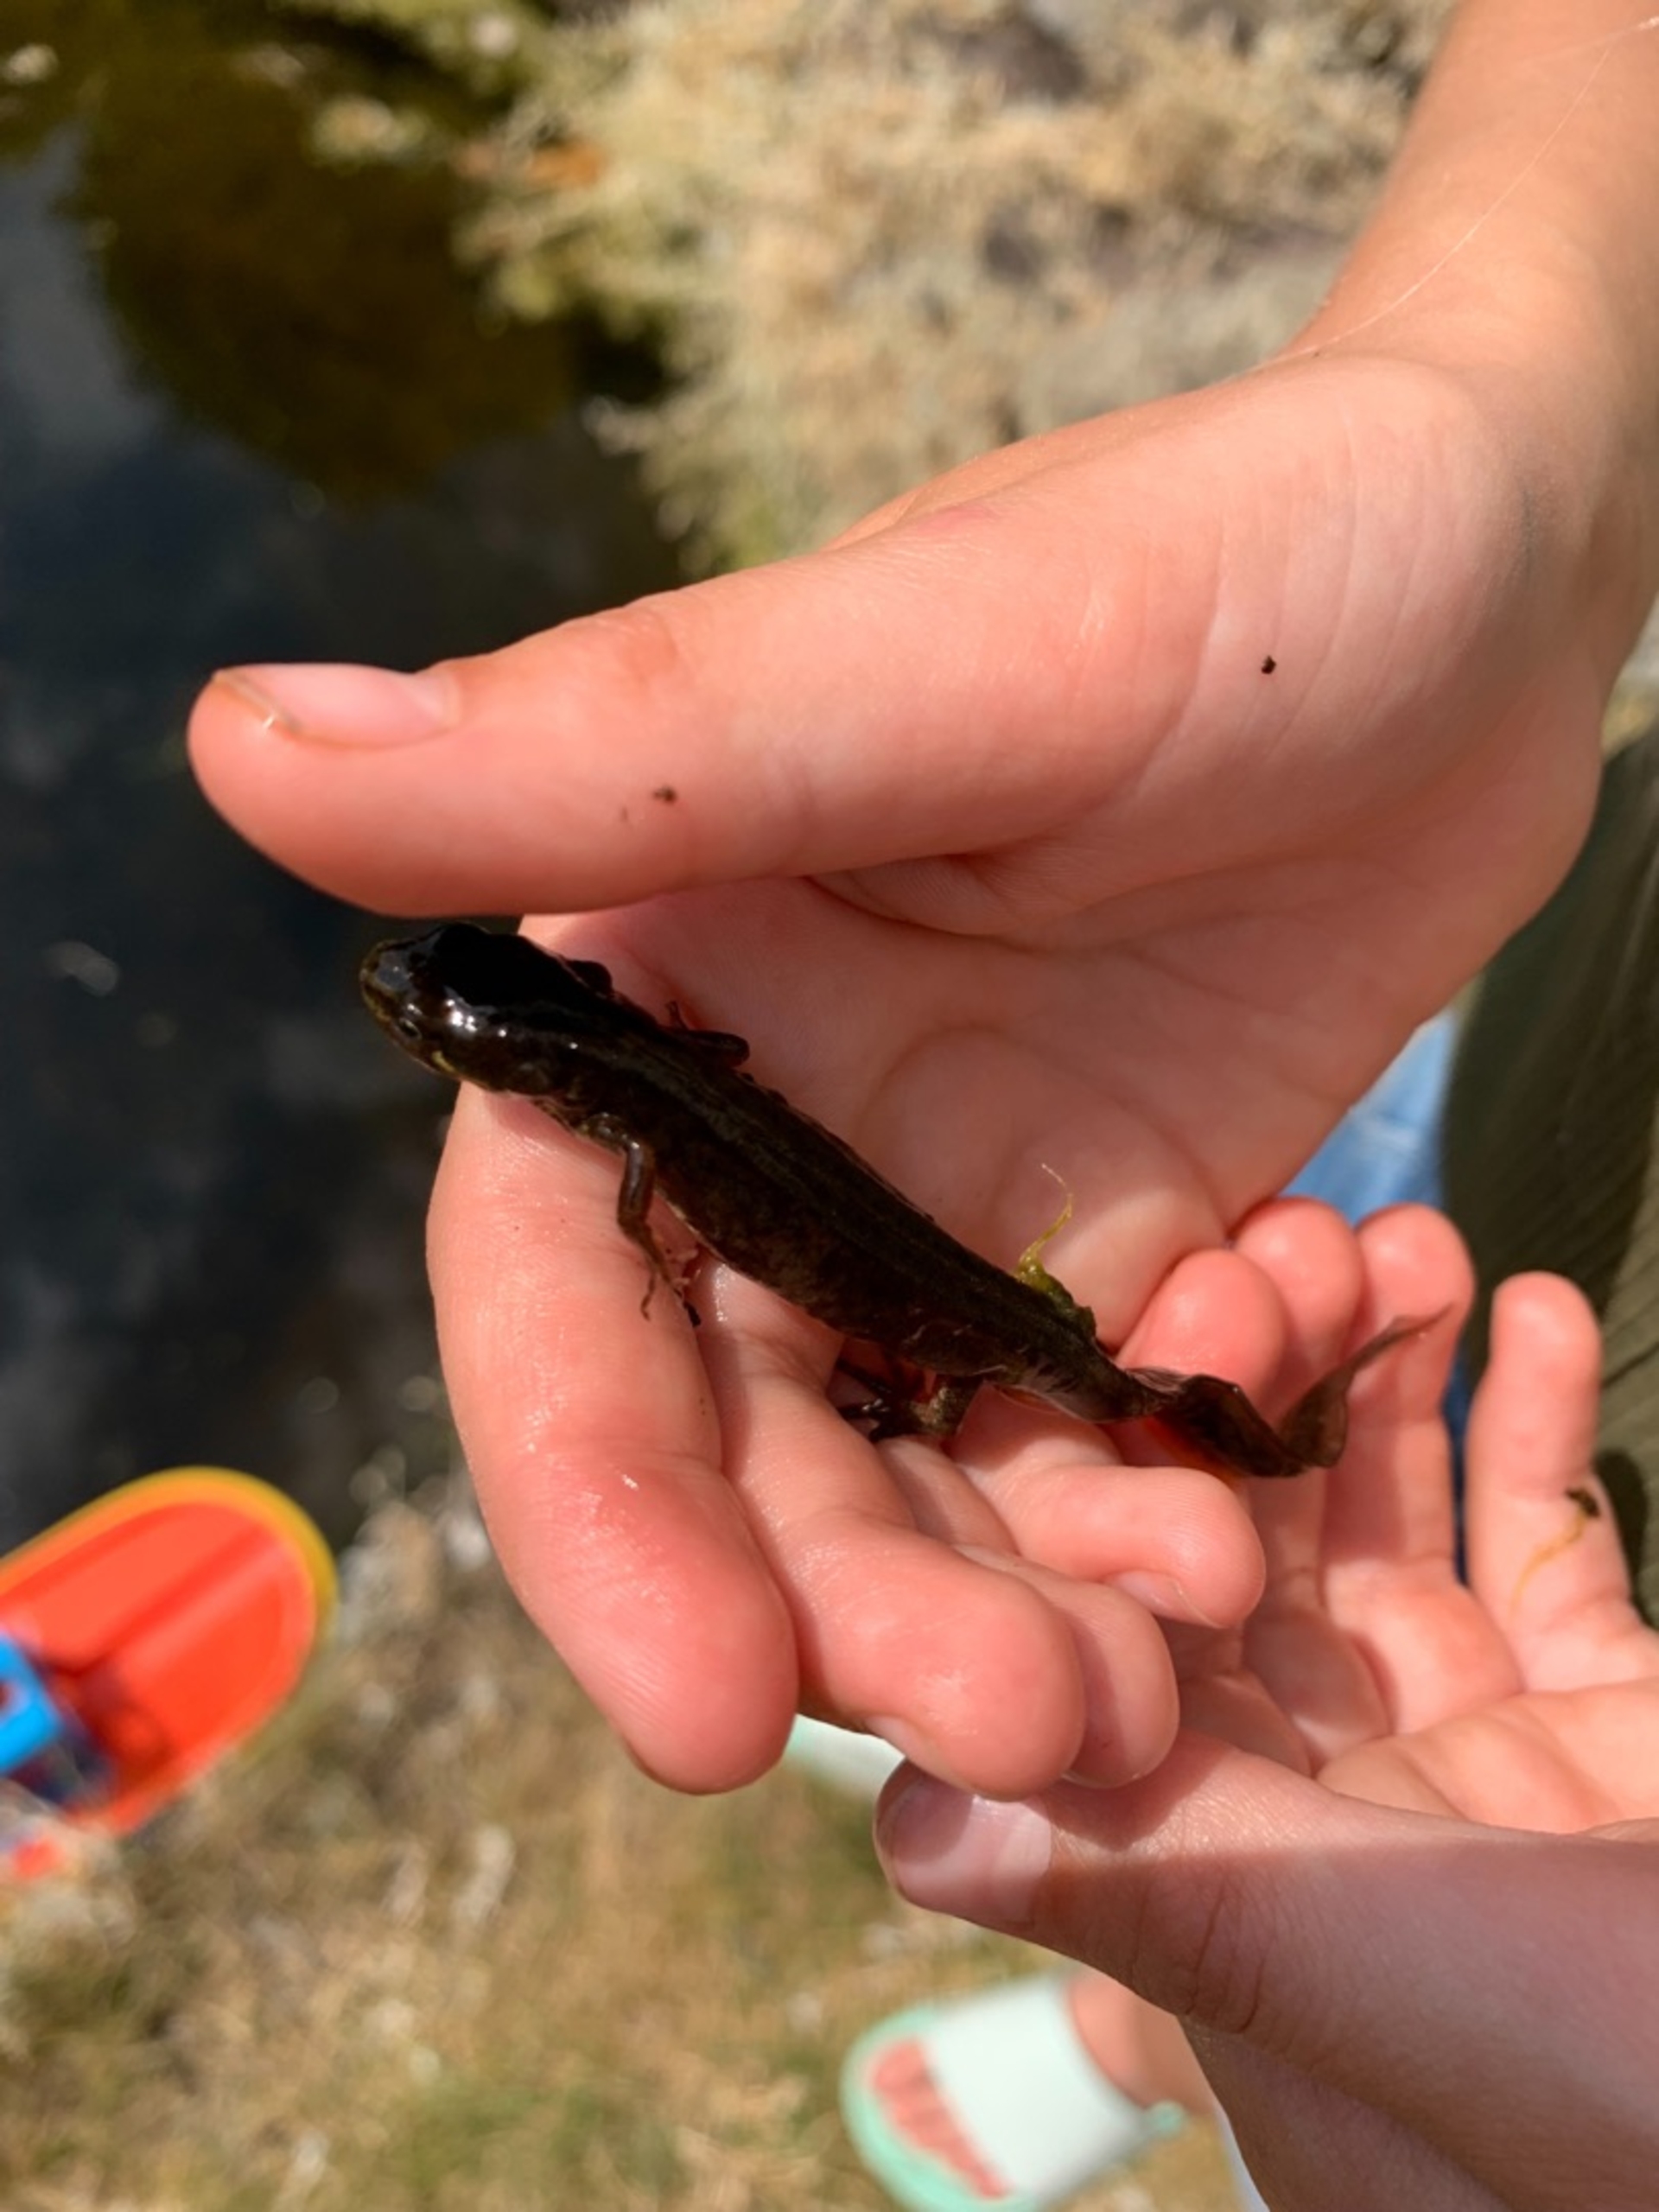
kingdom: Animalia
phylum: Chordata
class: Amphibia
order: Caudata
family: Salamandridae
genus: Lissotriton
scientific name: Lissotriton vulgaris
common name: Lille vandsalamander
